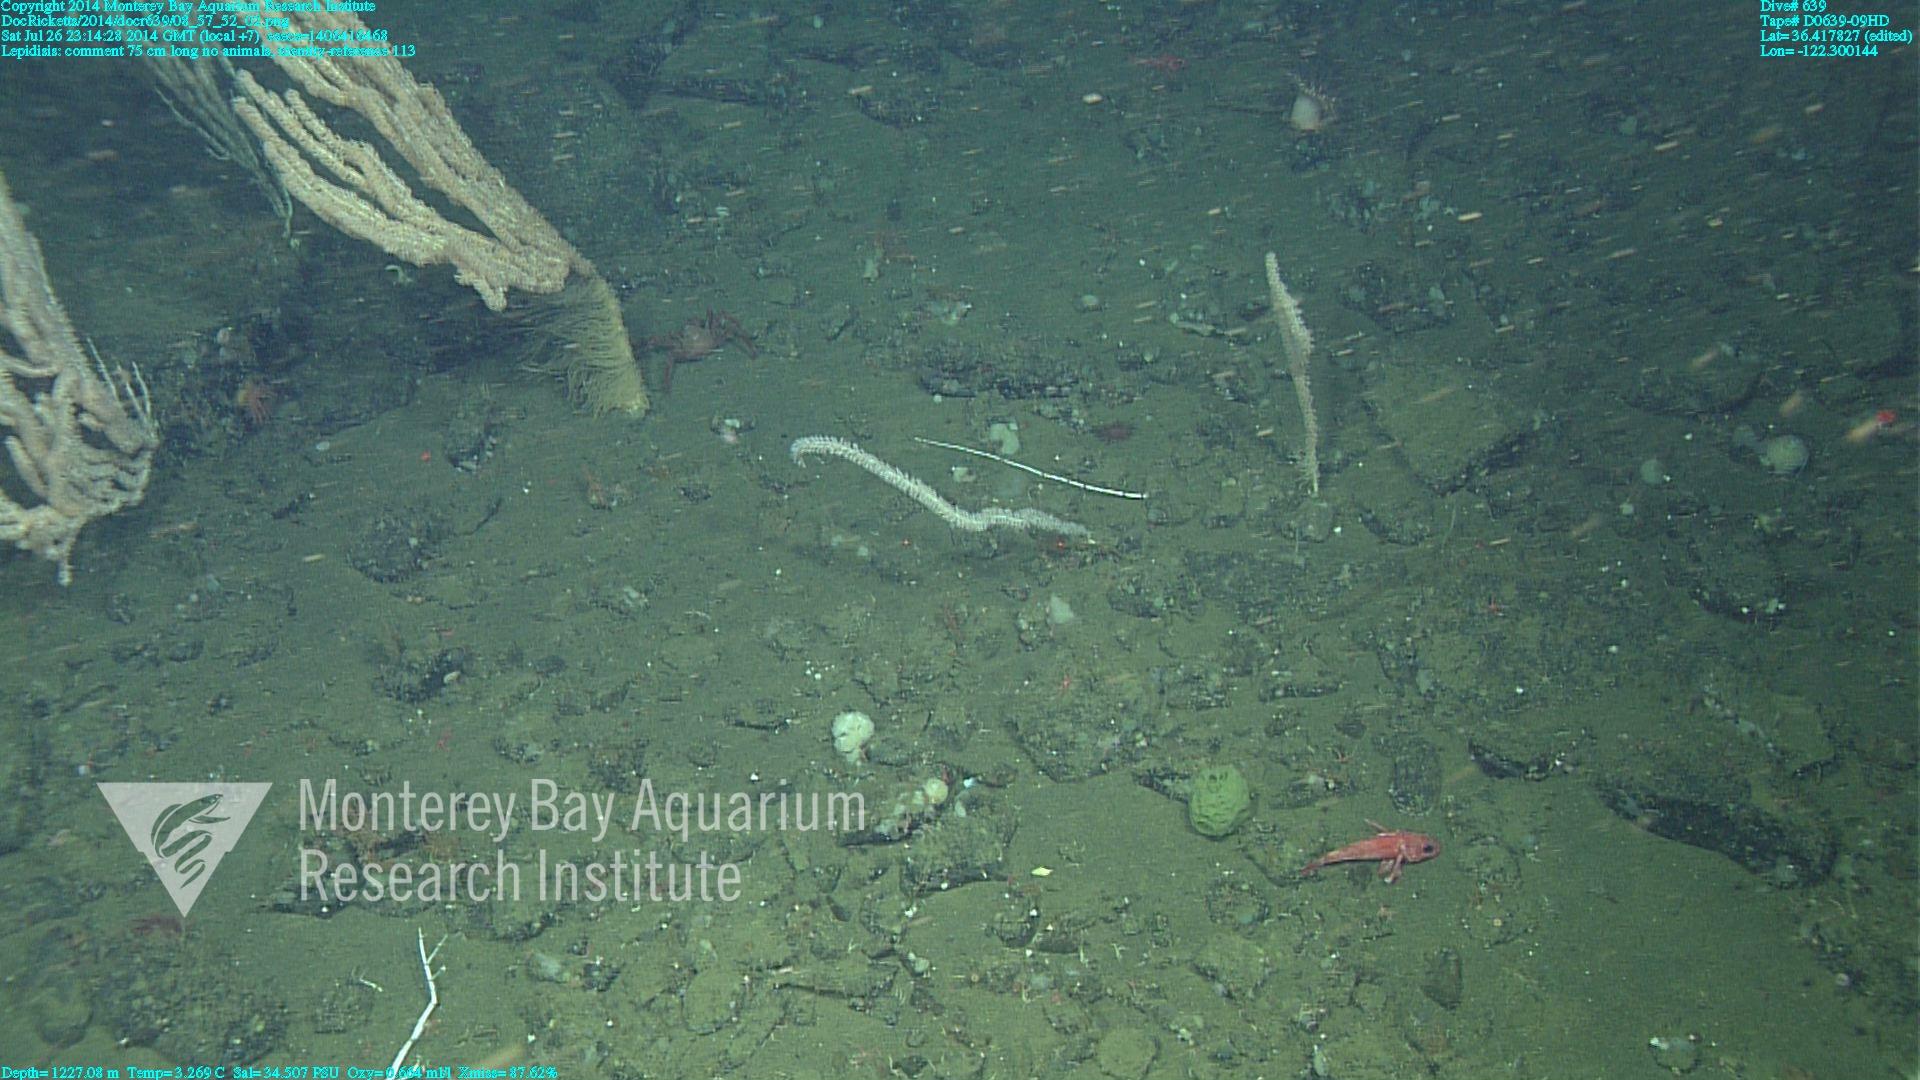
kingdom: Animalia
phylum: Cnidaria
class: Anthozoa
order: Scleralcyonacea
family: Keratoisididae
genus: Lepidisis
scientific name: Lepidisis
